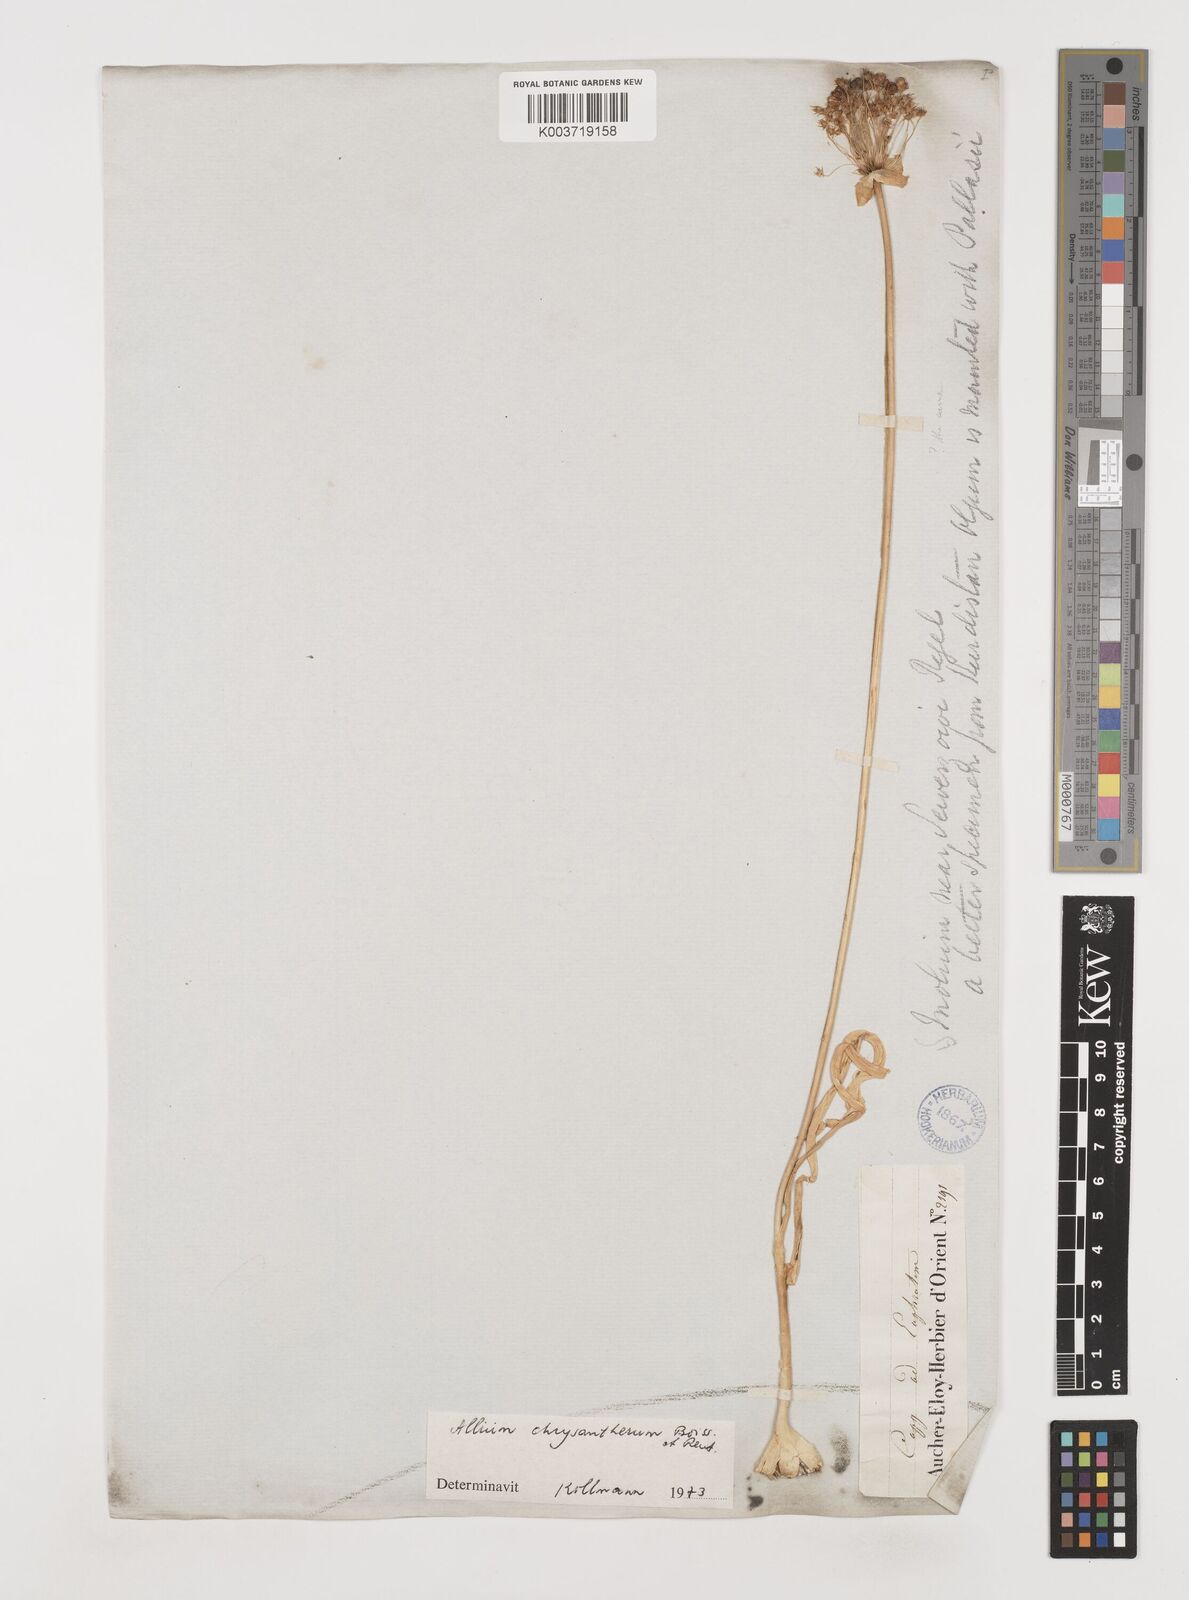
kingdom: Plantae
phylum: Tracheophyta
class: Liliopsida
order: Asparagales
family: Amaryllidaceae
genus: Allium
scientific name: Allium chrysantherum
